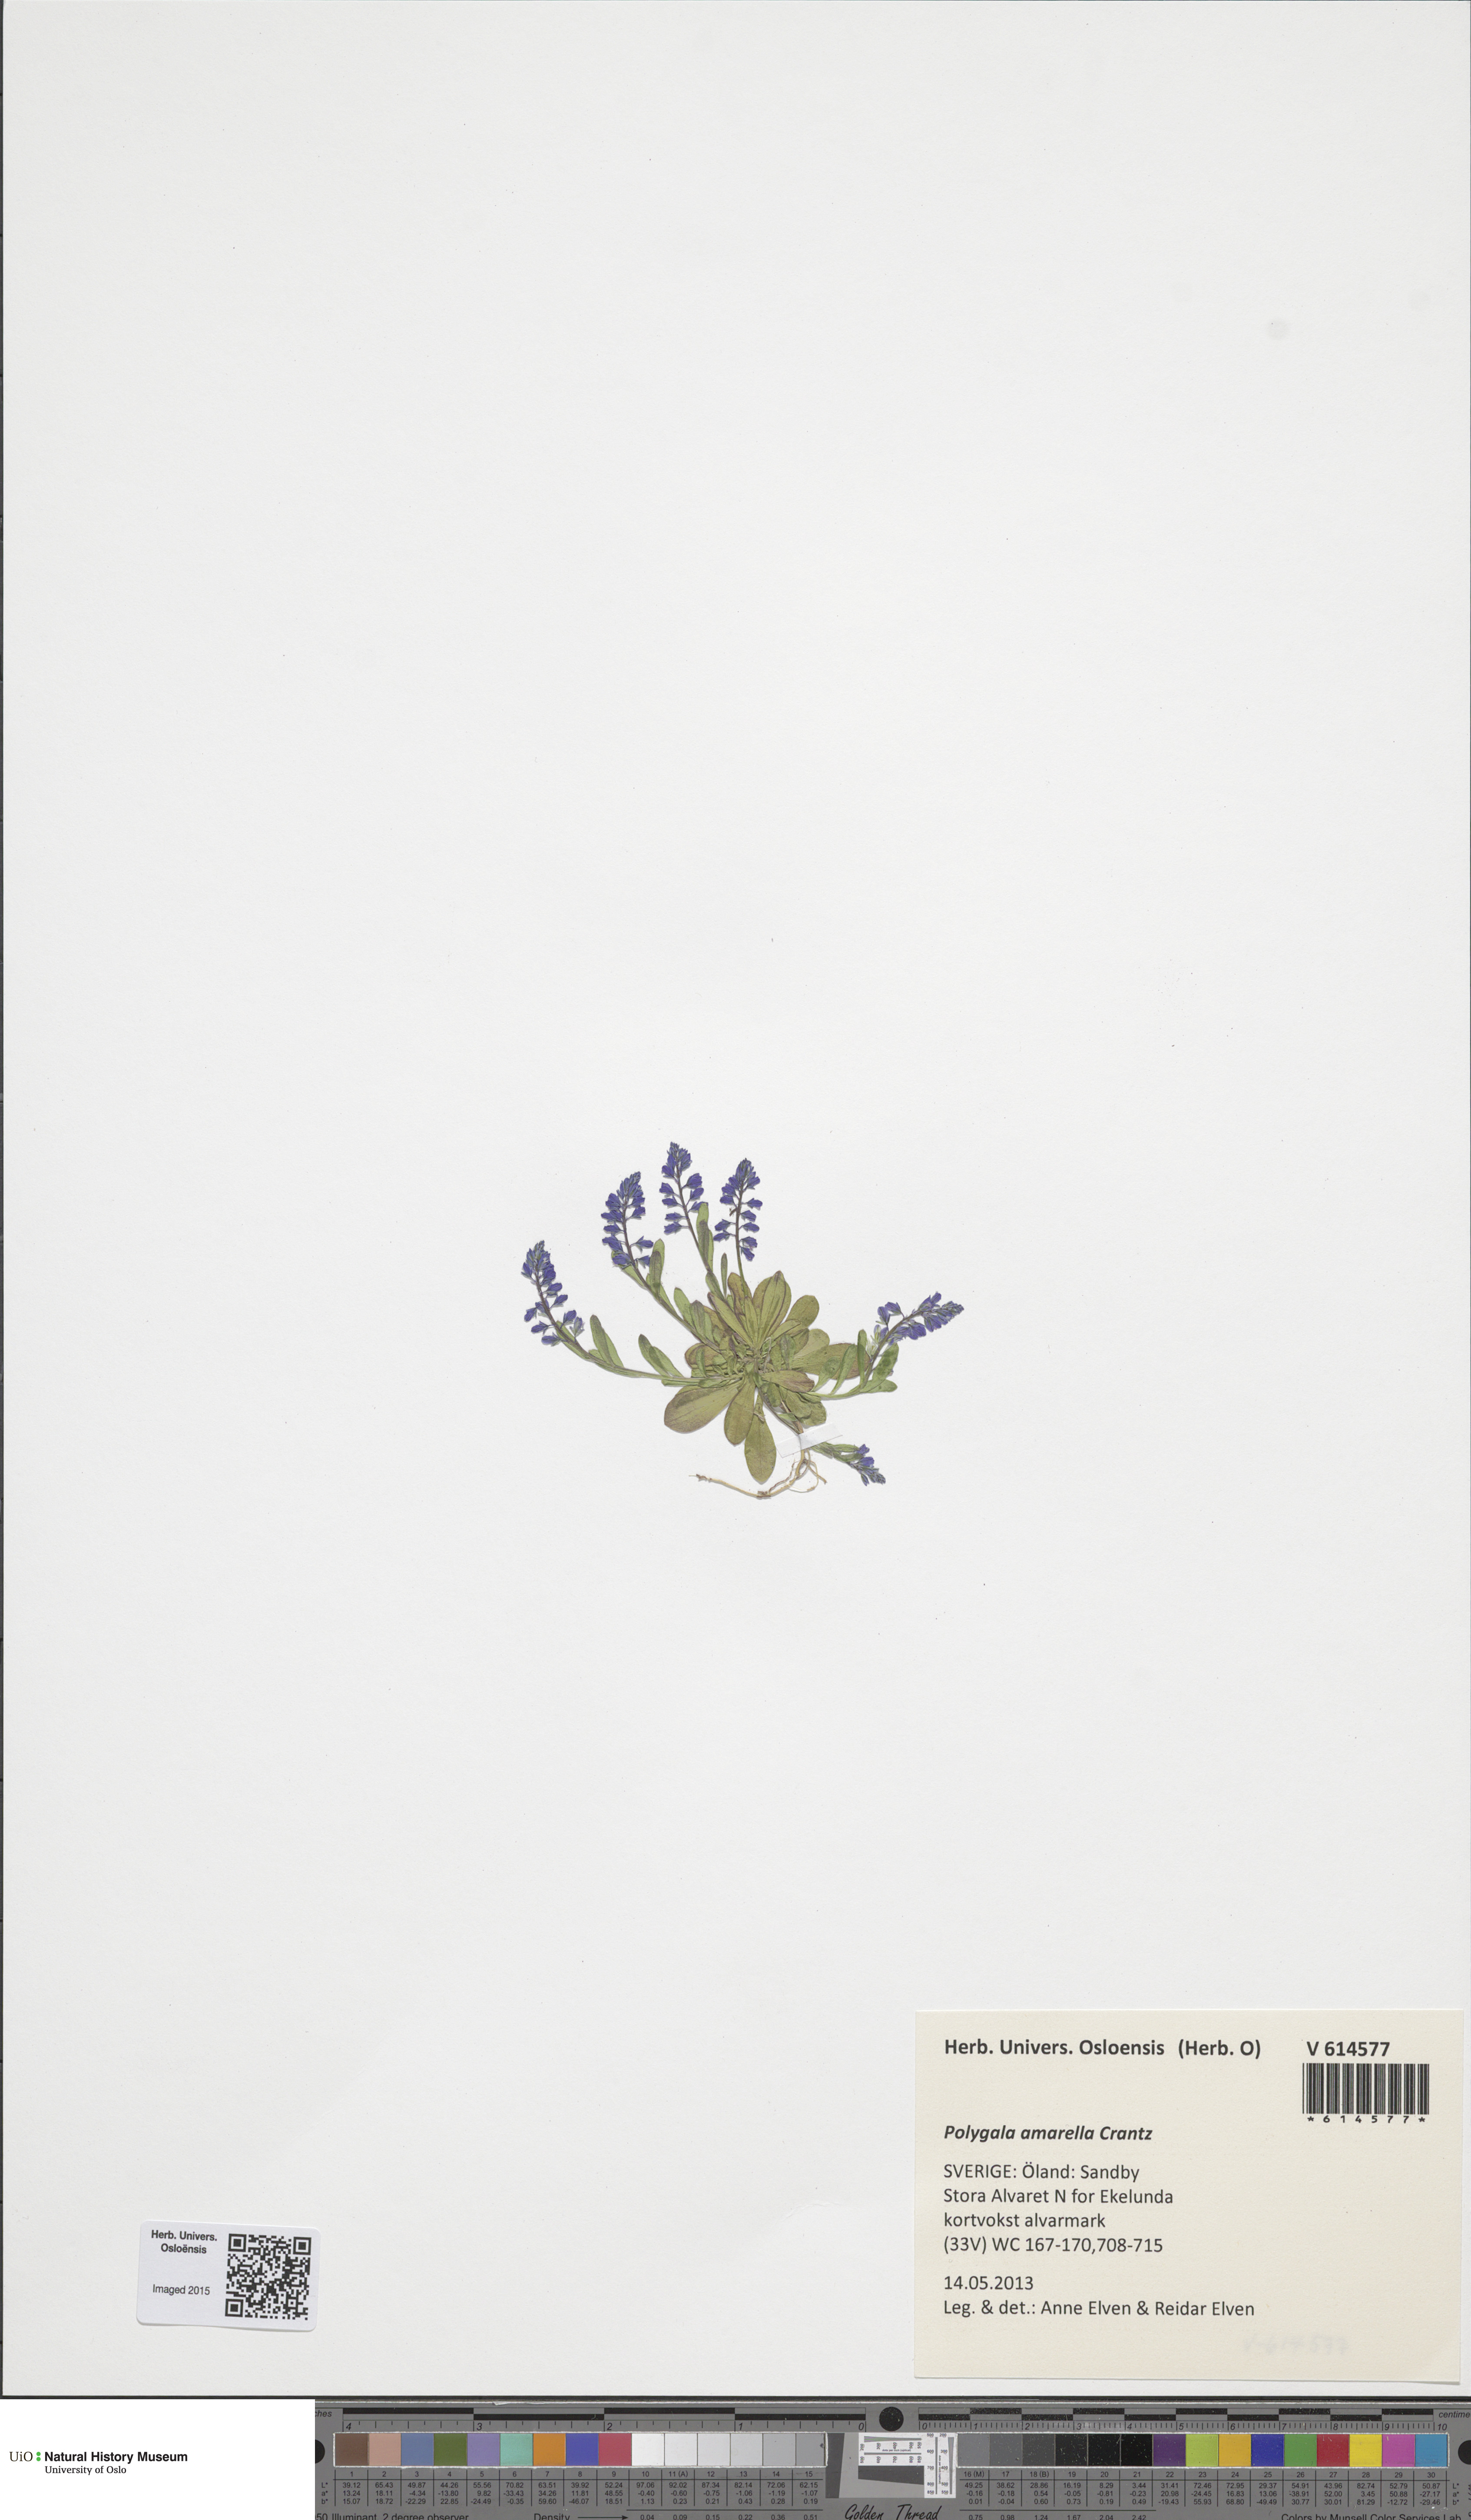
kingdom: Plantae
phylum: Tracheophyta
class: Magnoliopsida
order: Fabales
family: Polygalaceae
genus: Polygala
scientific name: Polygala amarella
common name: Dwarf milkwort
